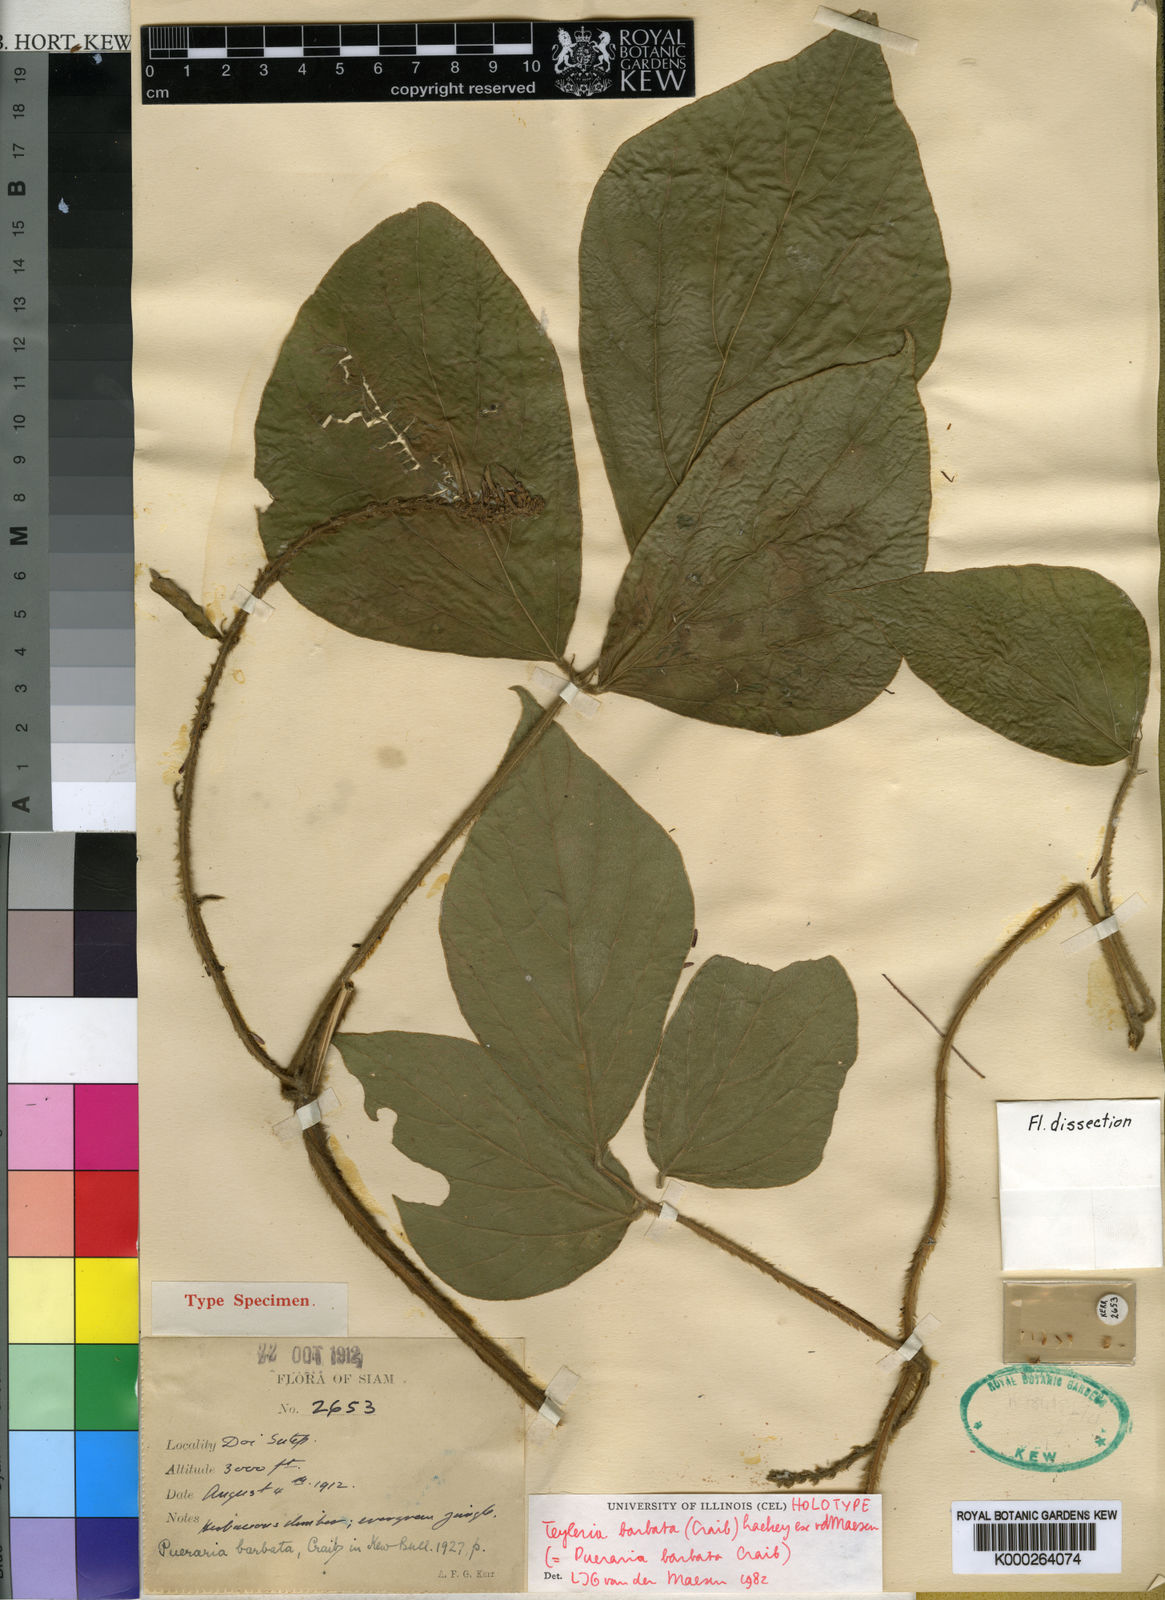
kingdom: Plantae
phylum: Tracheophyta
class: Magnoliopsida
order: Fabales
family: Fabaceae
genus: Teyleria
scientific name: Teyleria barbata
